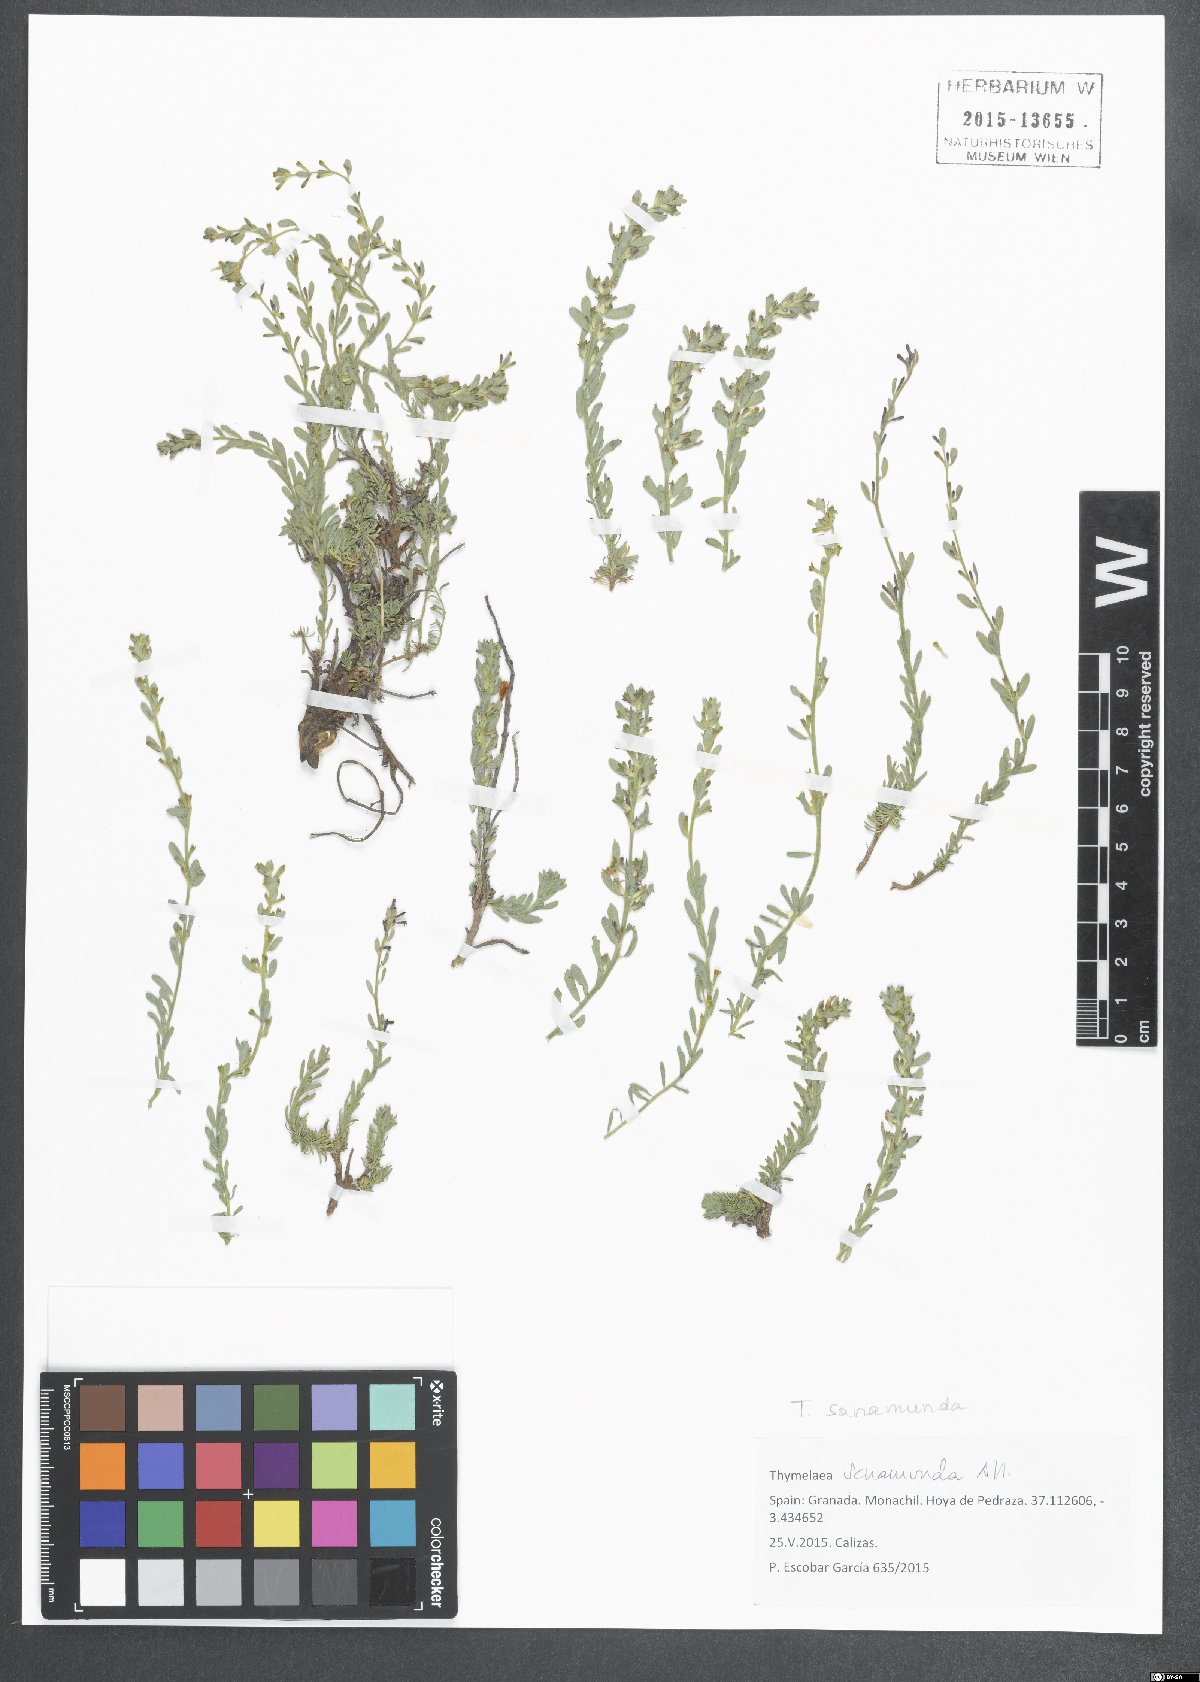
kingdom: Plantae
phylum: Tracheophyta
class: Magnoliopsida
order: Malvales
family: Thymelaeaceae
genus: Thymelaea
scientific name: Thymelaea sanamunda
